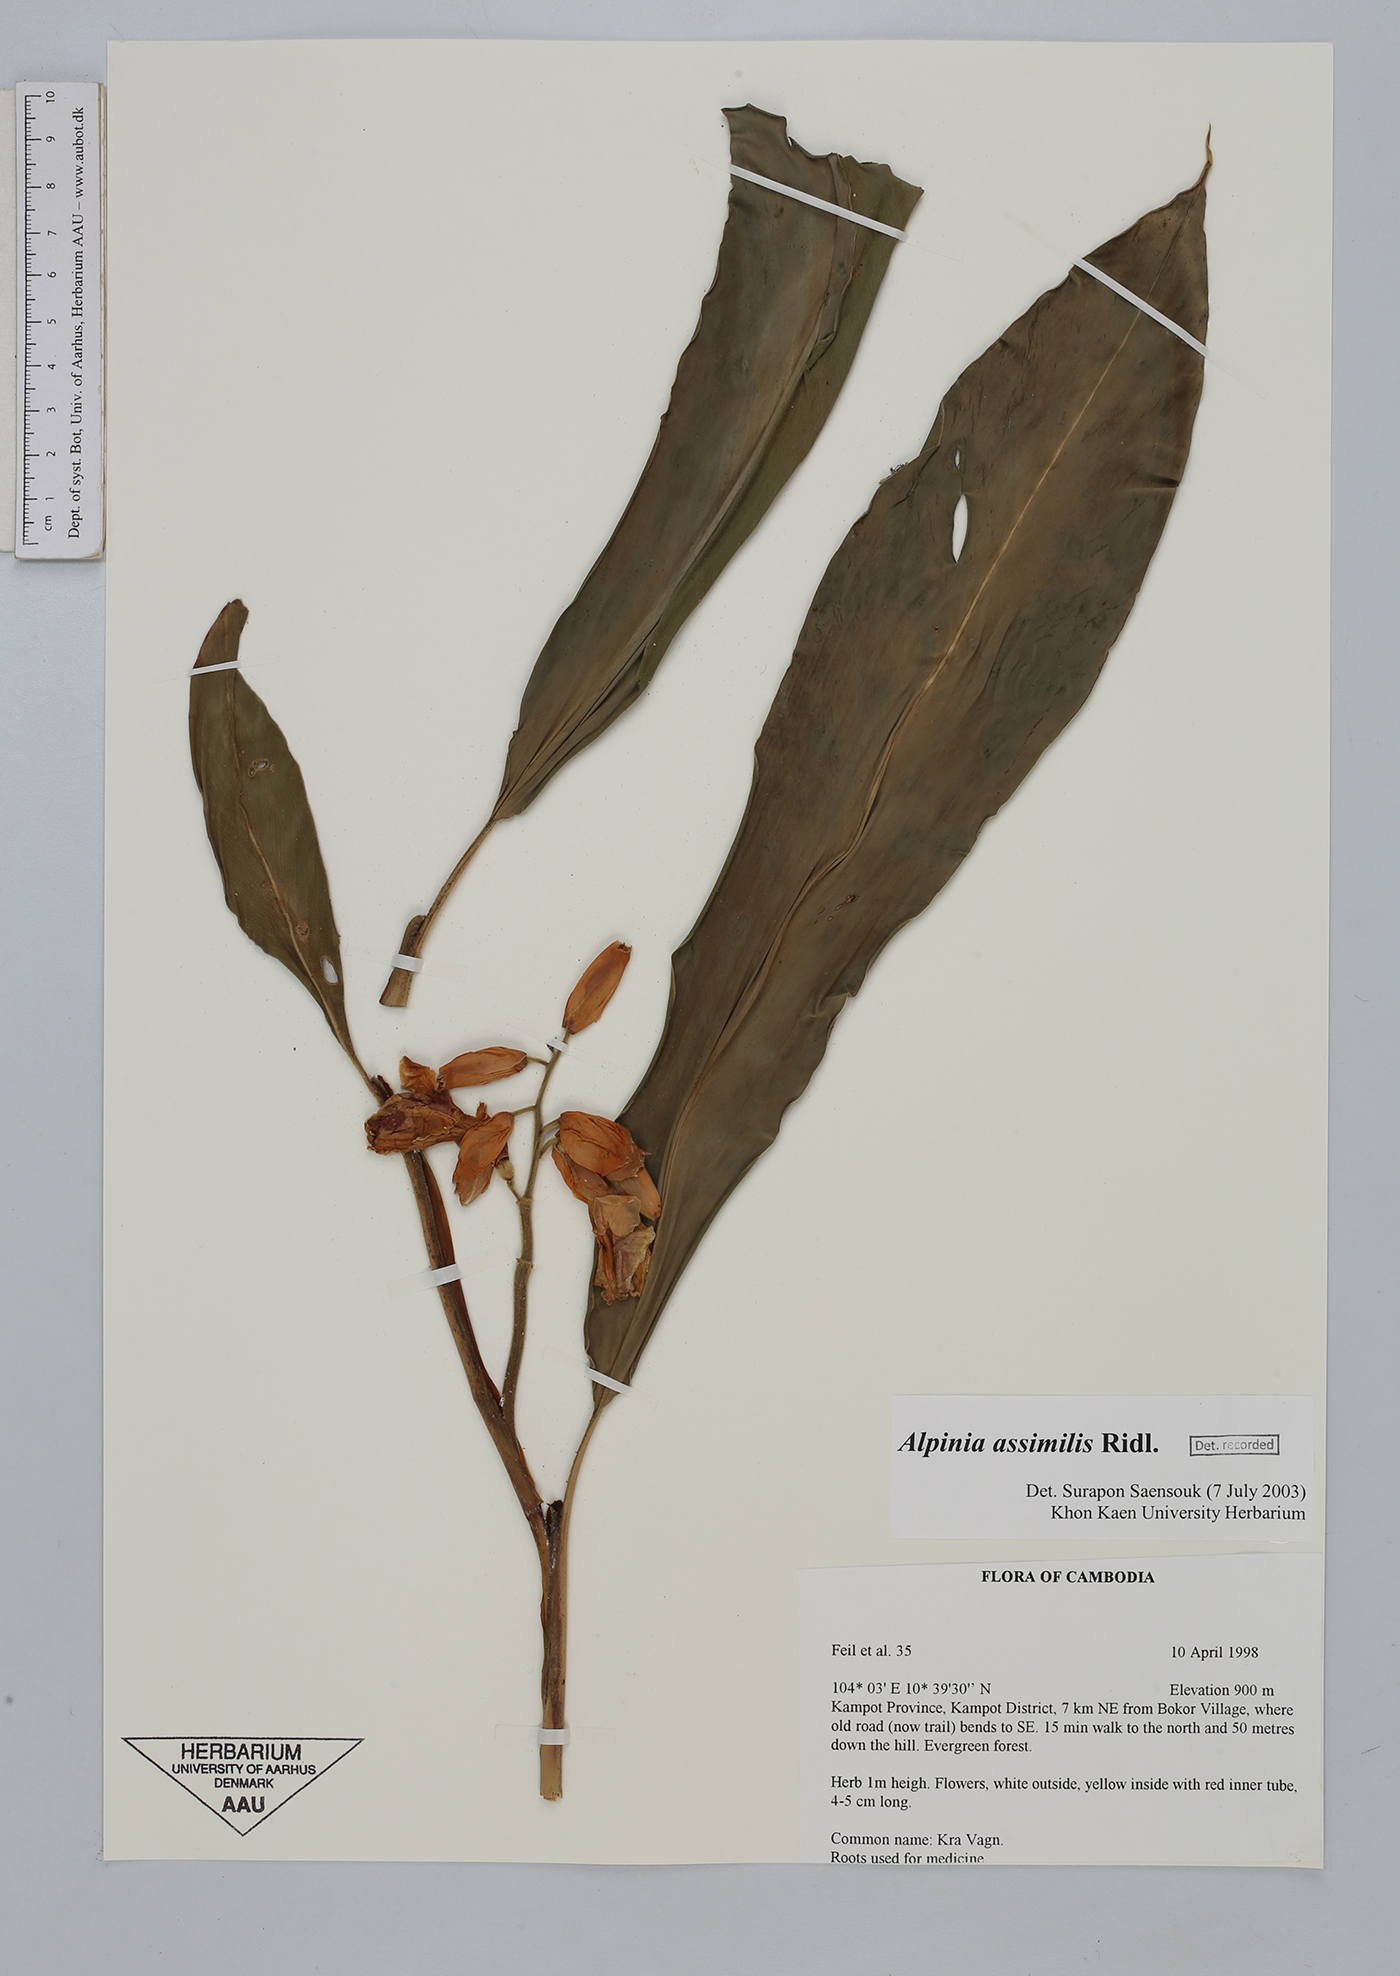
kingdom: Plantae
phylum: Tracheophyta
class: Liliopsida
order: Zingiberales
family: Zingiberaceae
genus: Alpinia
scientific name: Alpinia assimilis
